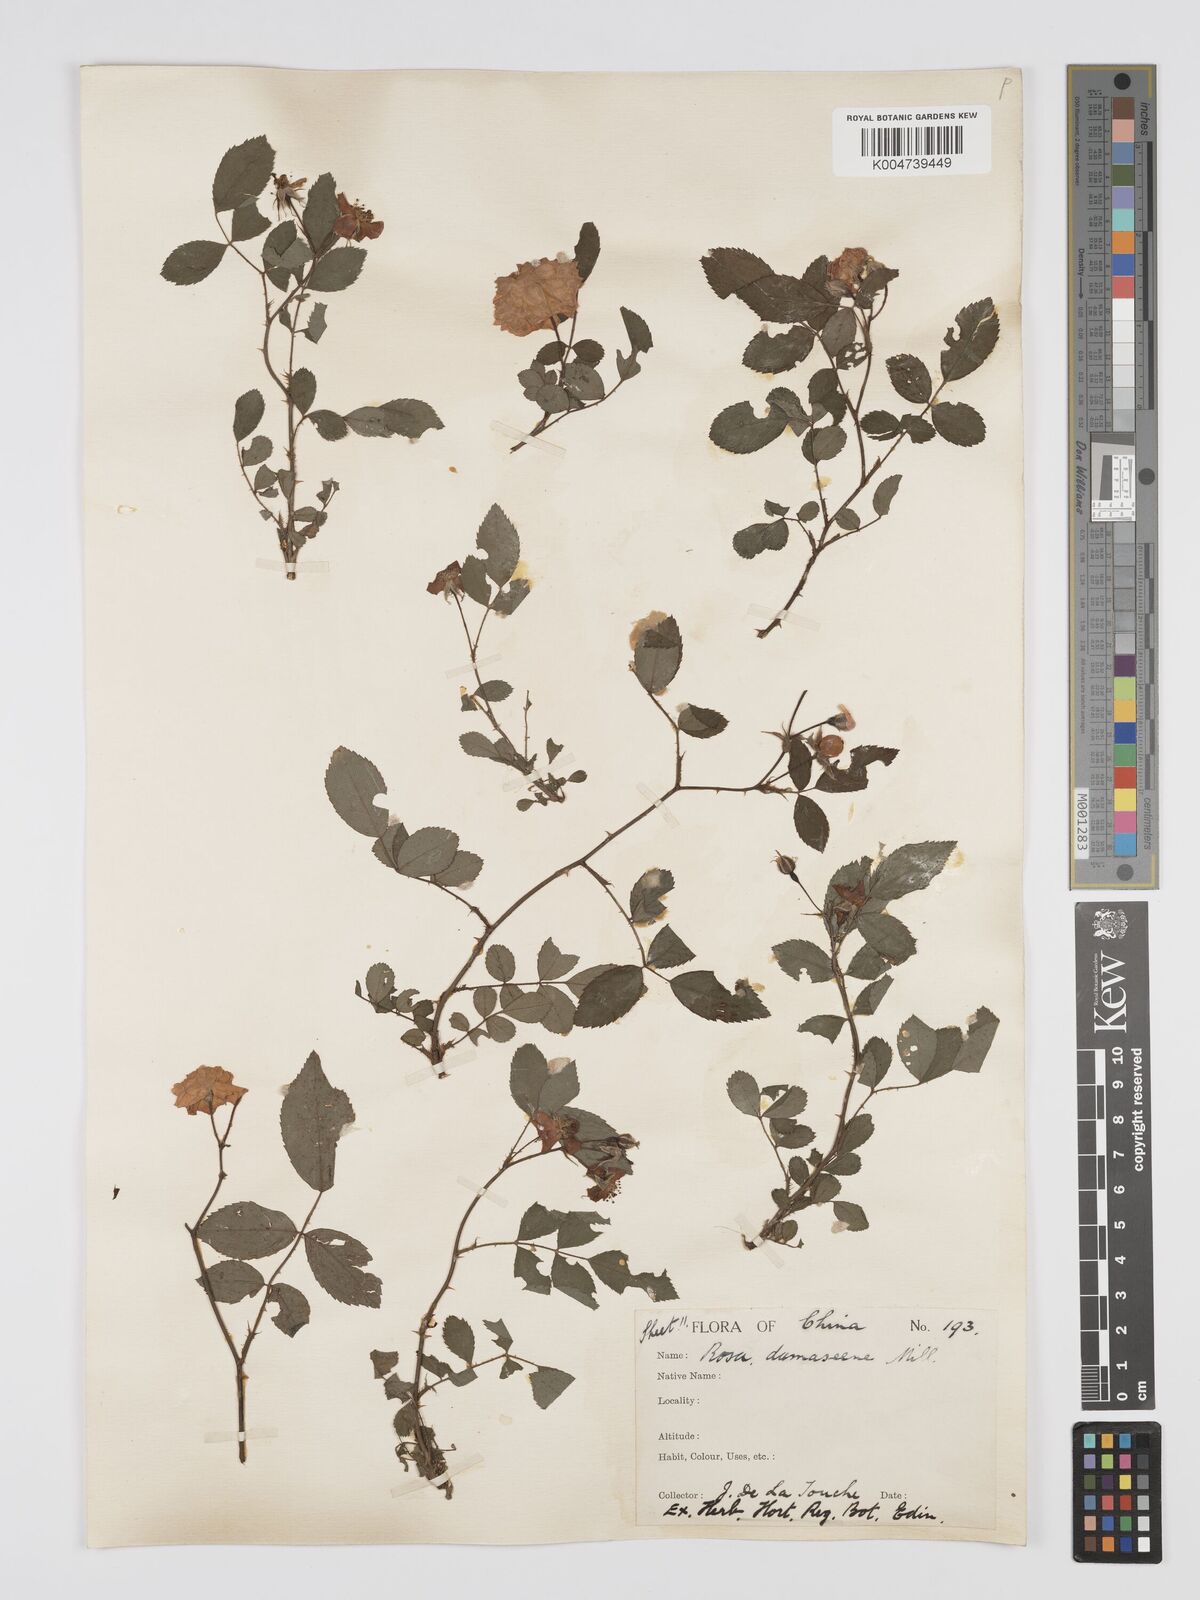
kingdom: Plantae
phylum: Tracheophyta
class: Magnoliopsida
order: Rosales
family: Rosaceae
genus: Rosa
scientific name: Rosa
